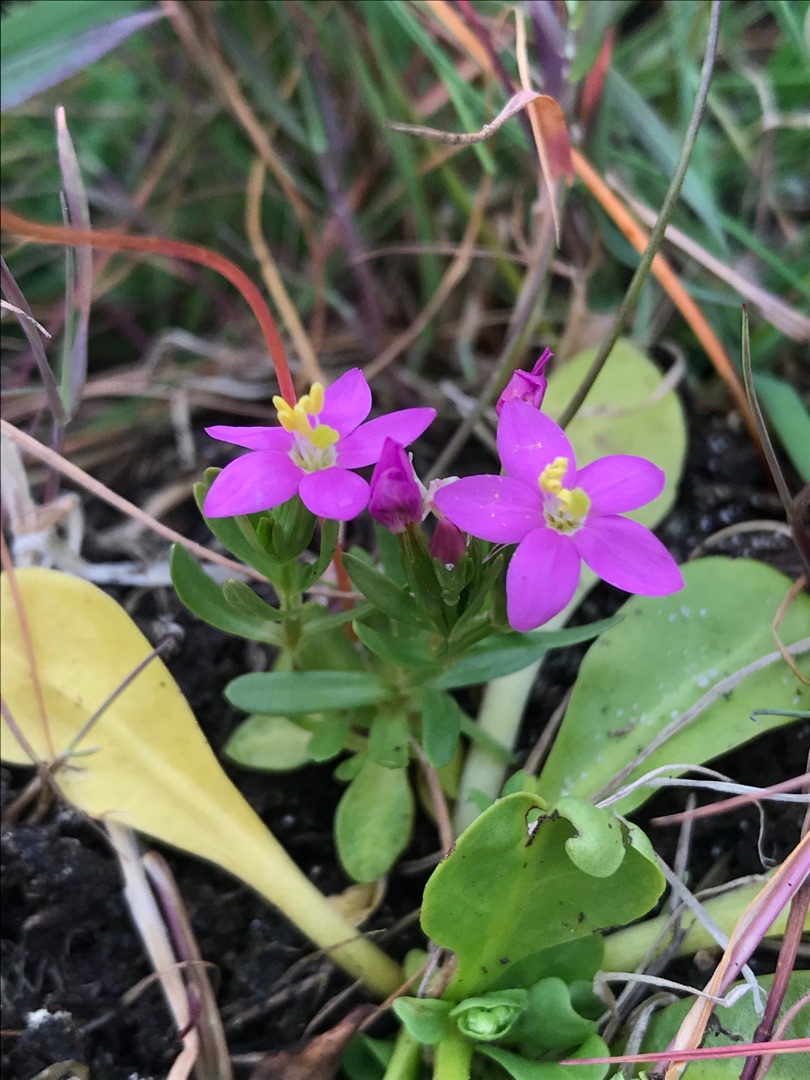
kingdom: Plantae
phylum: Tracheophyta
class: Magnoliopsida
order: Gentianales
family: Gentianaceae
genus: Centaurium
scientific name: Centaurium pulchellum
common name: Liden tusindgylden
